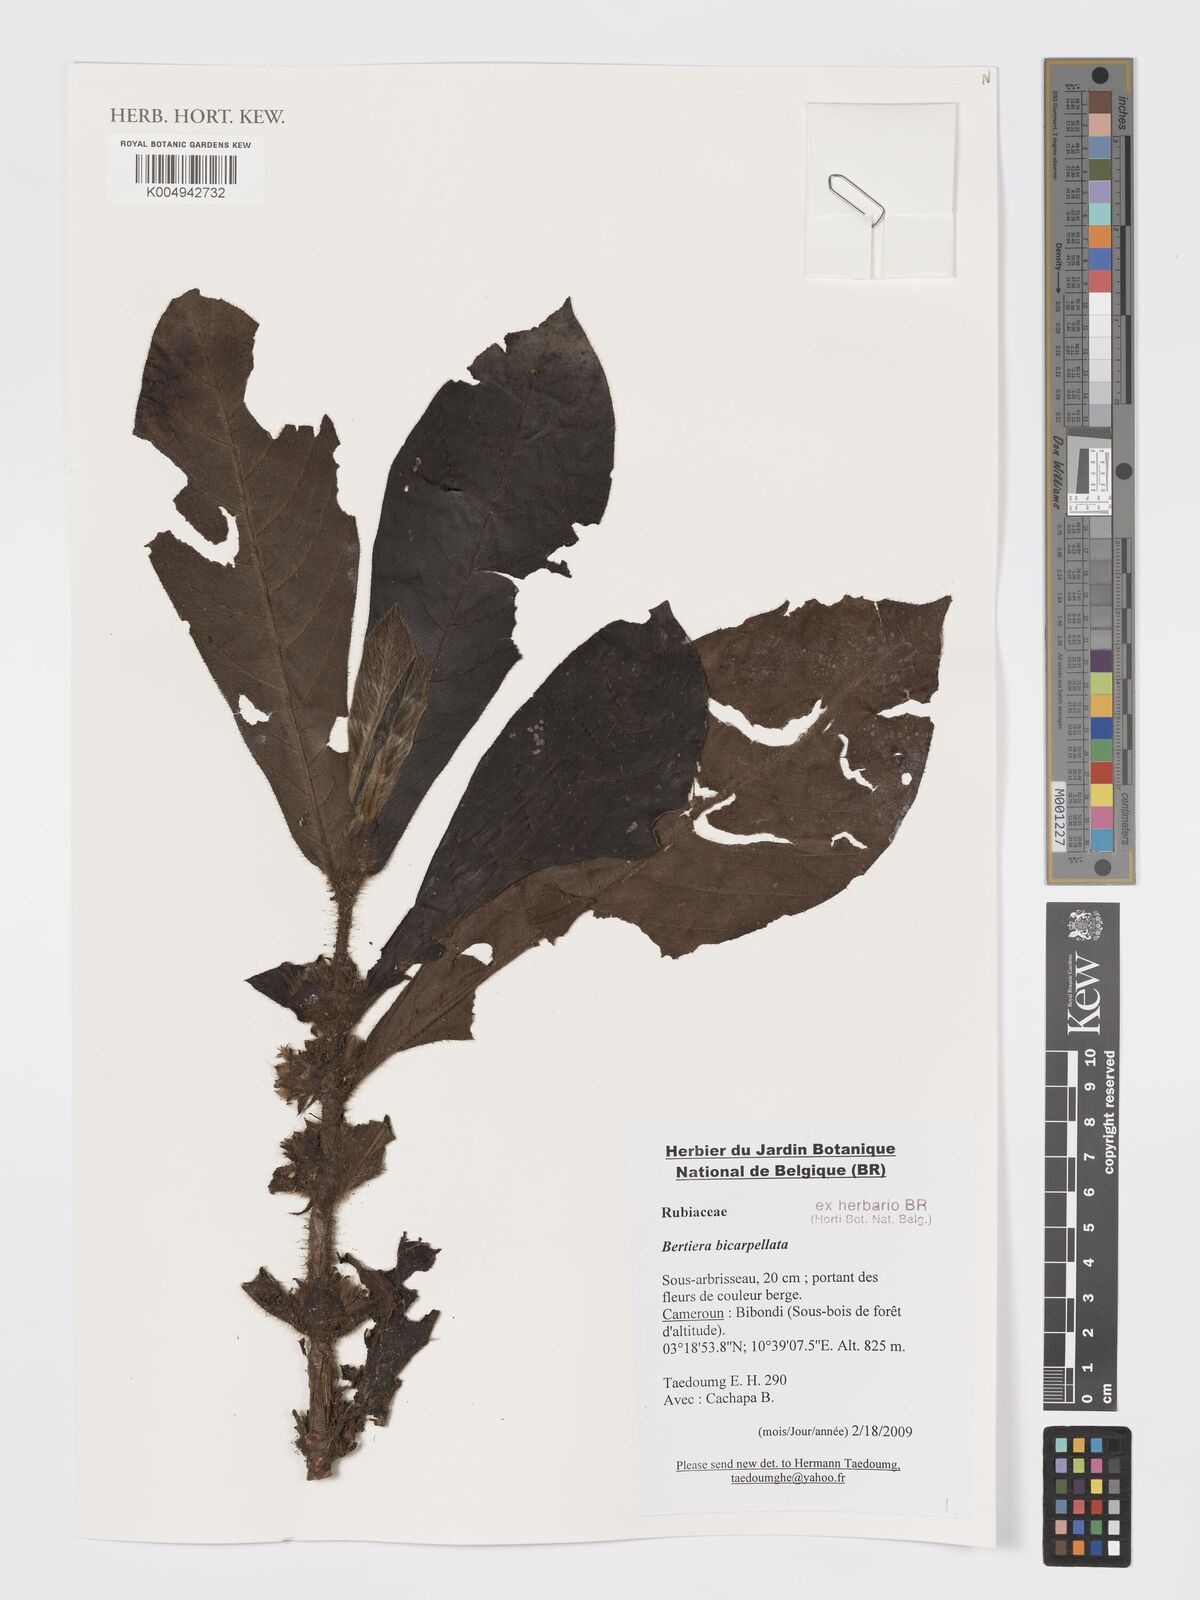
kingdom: Plantae
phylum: Tracheophyta
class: Magnoliopsida
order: Gentianales
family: Rubiaceae
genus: Bertiera
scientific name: Bertiera bicarpellata
